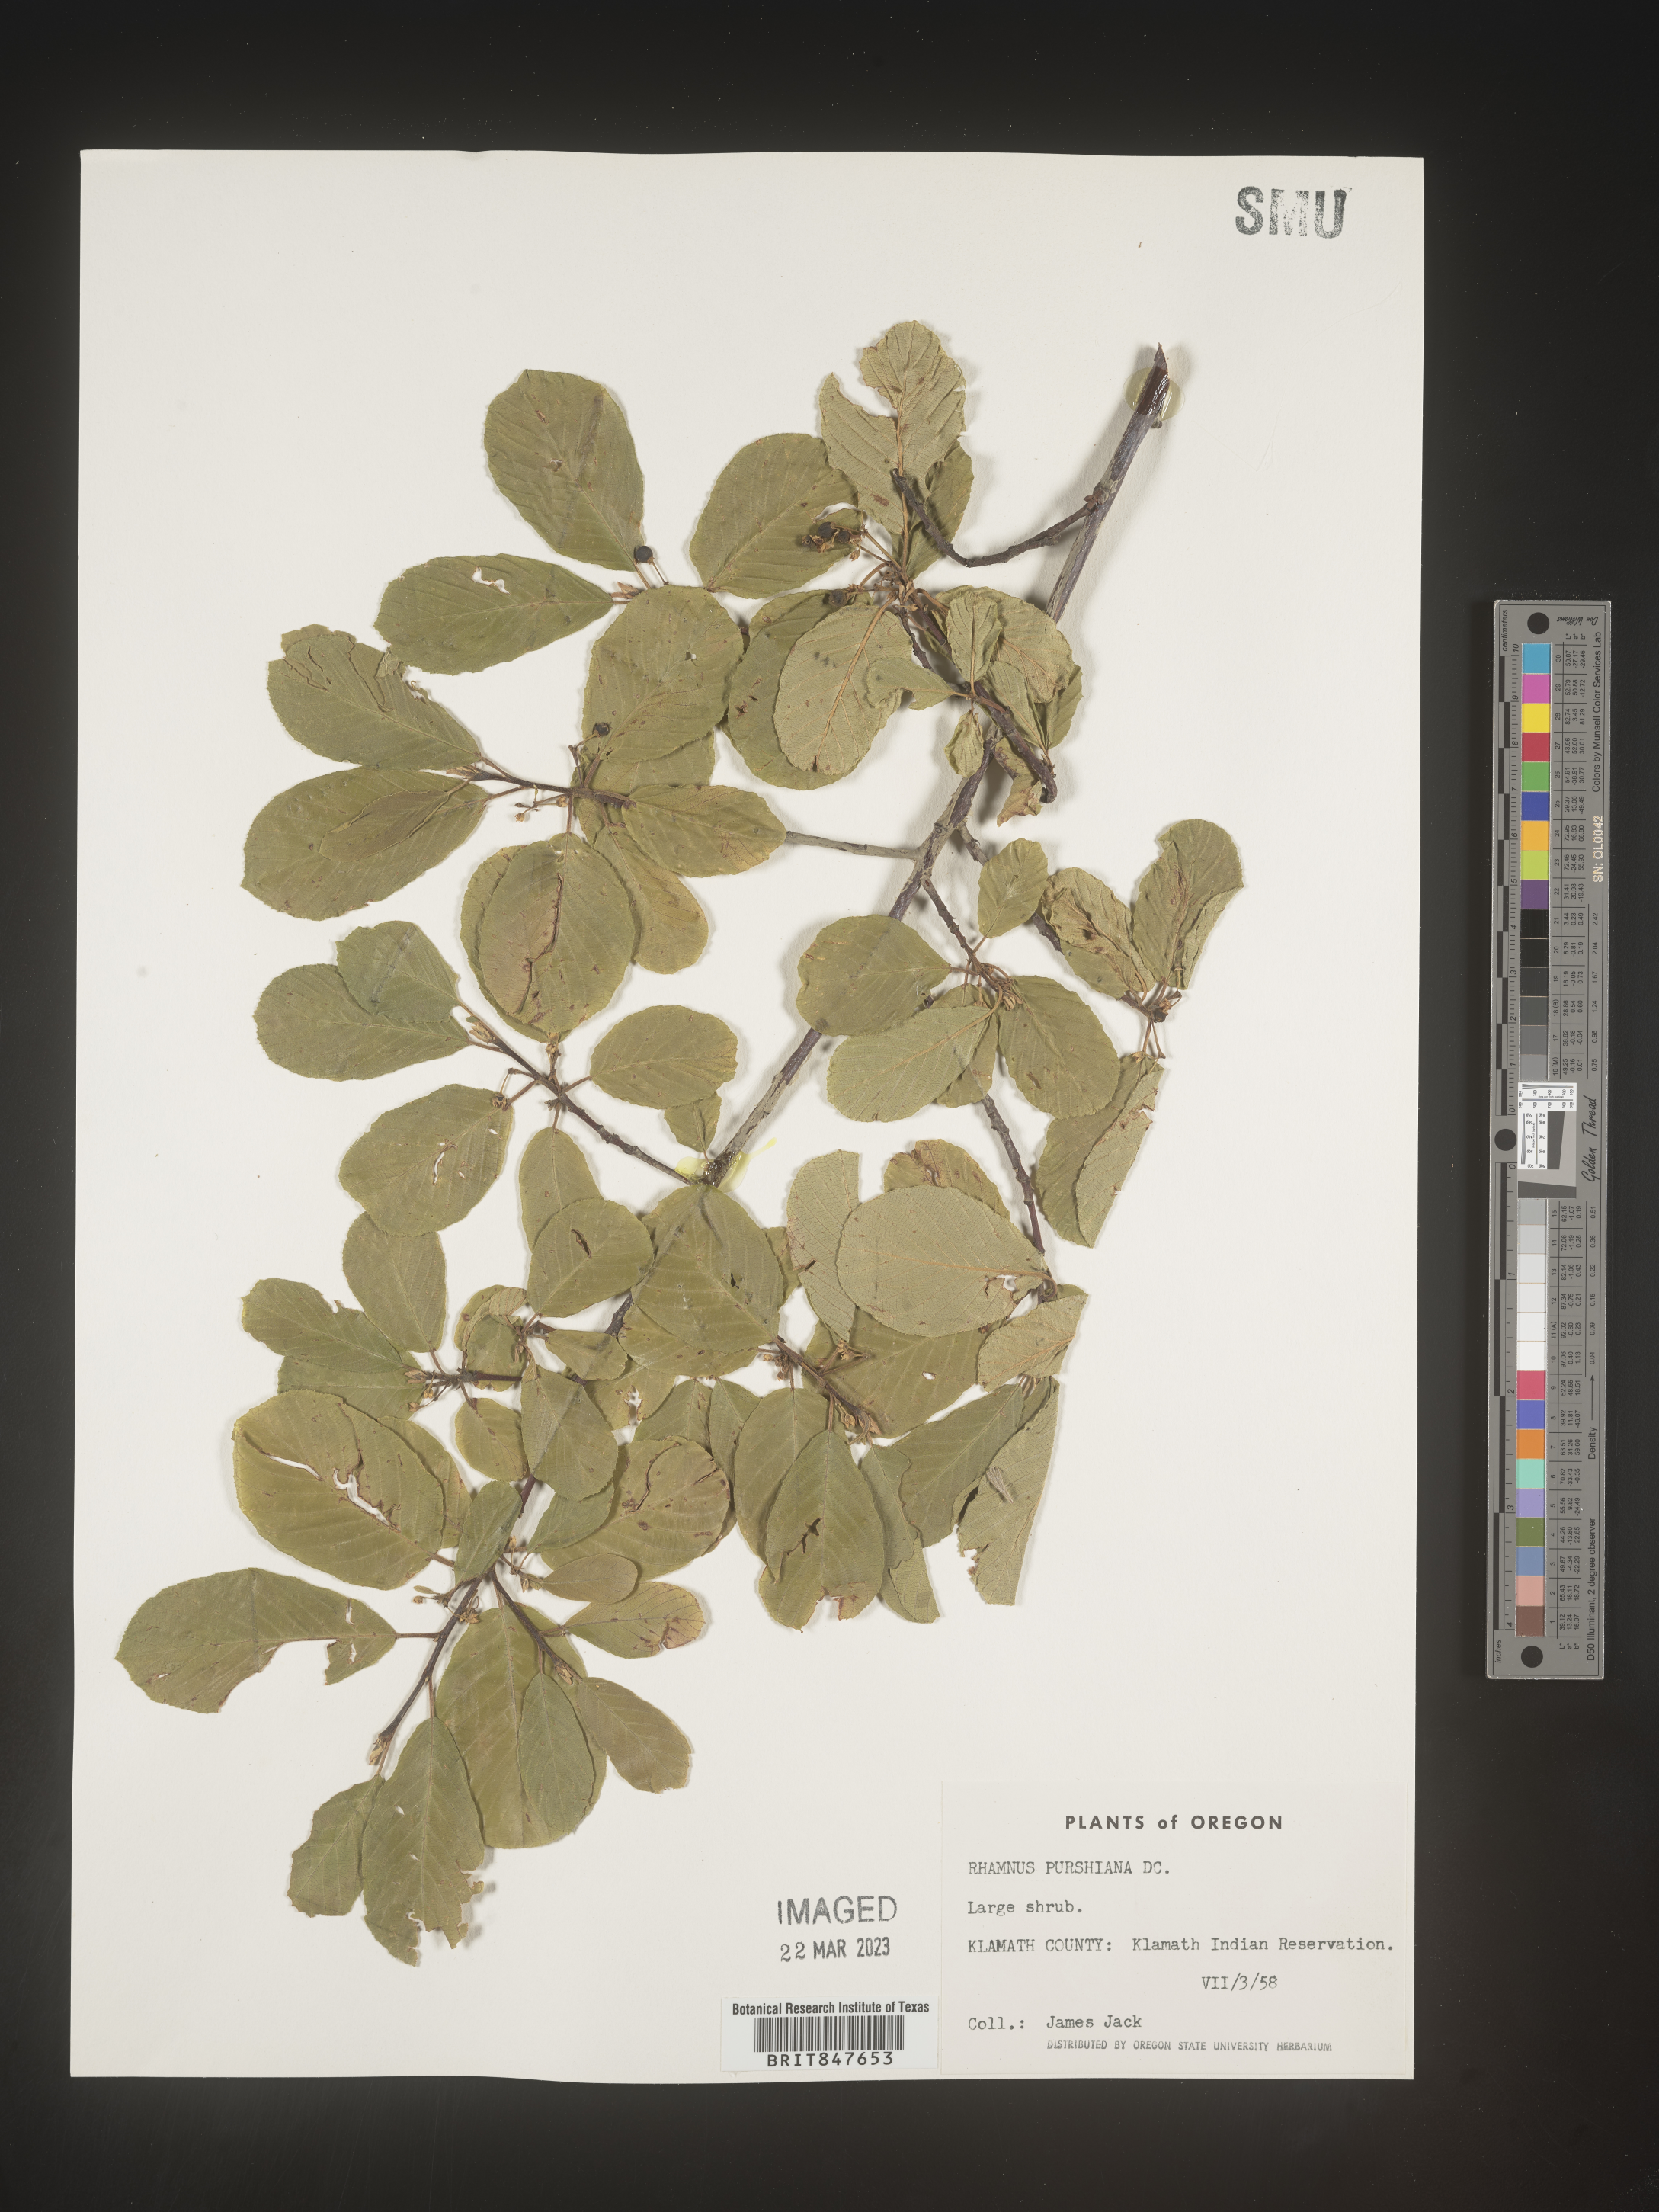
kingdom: Plantae
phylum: Tracheophyta
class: Magnoliopsida
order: Rosales
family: Rhamnaceae
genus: Frangula
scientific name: Frangula purshiana
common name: Cascara buckthorn
